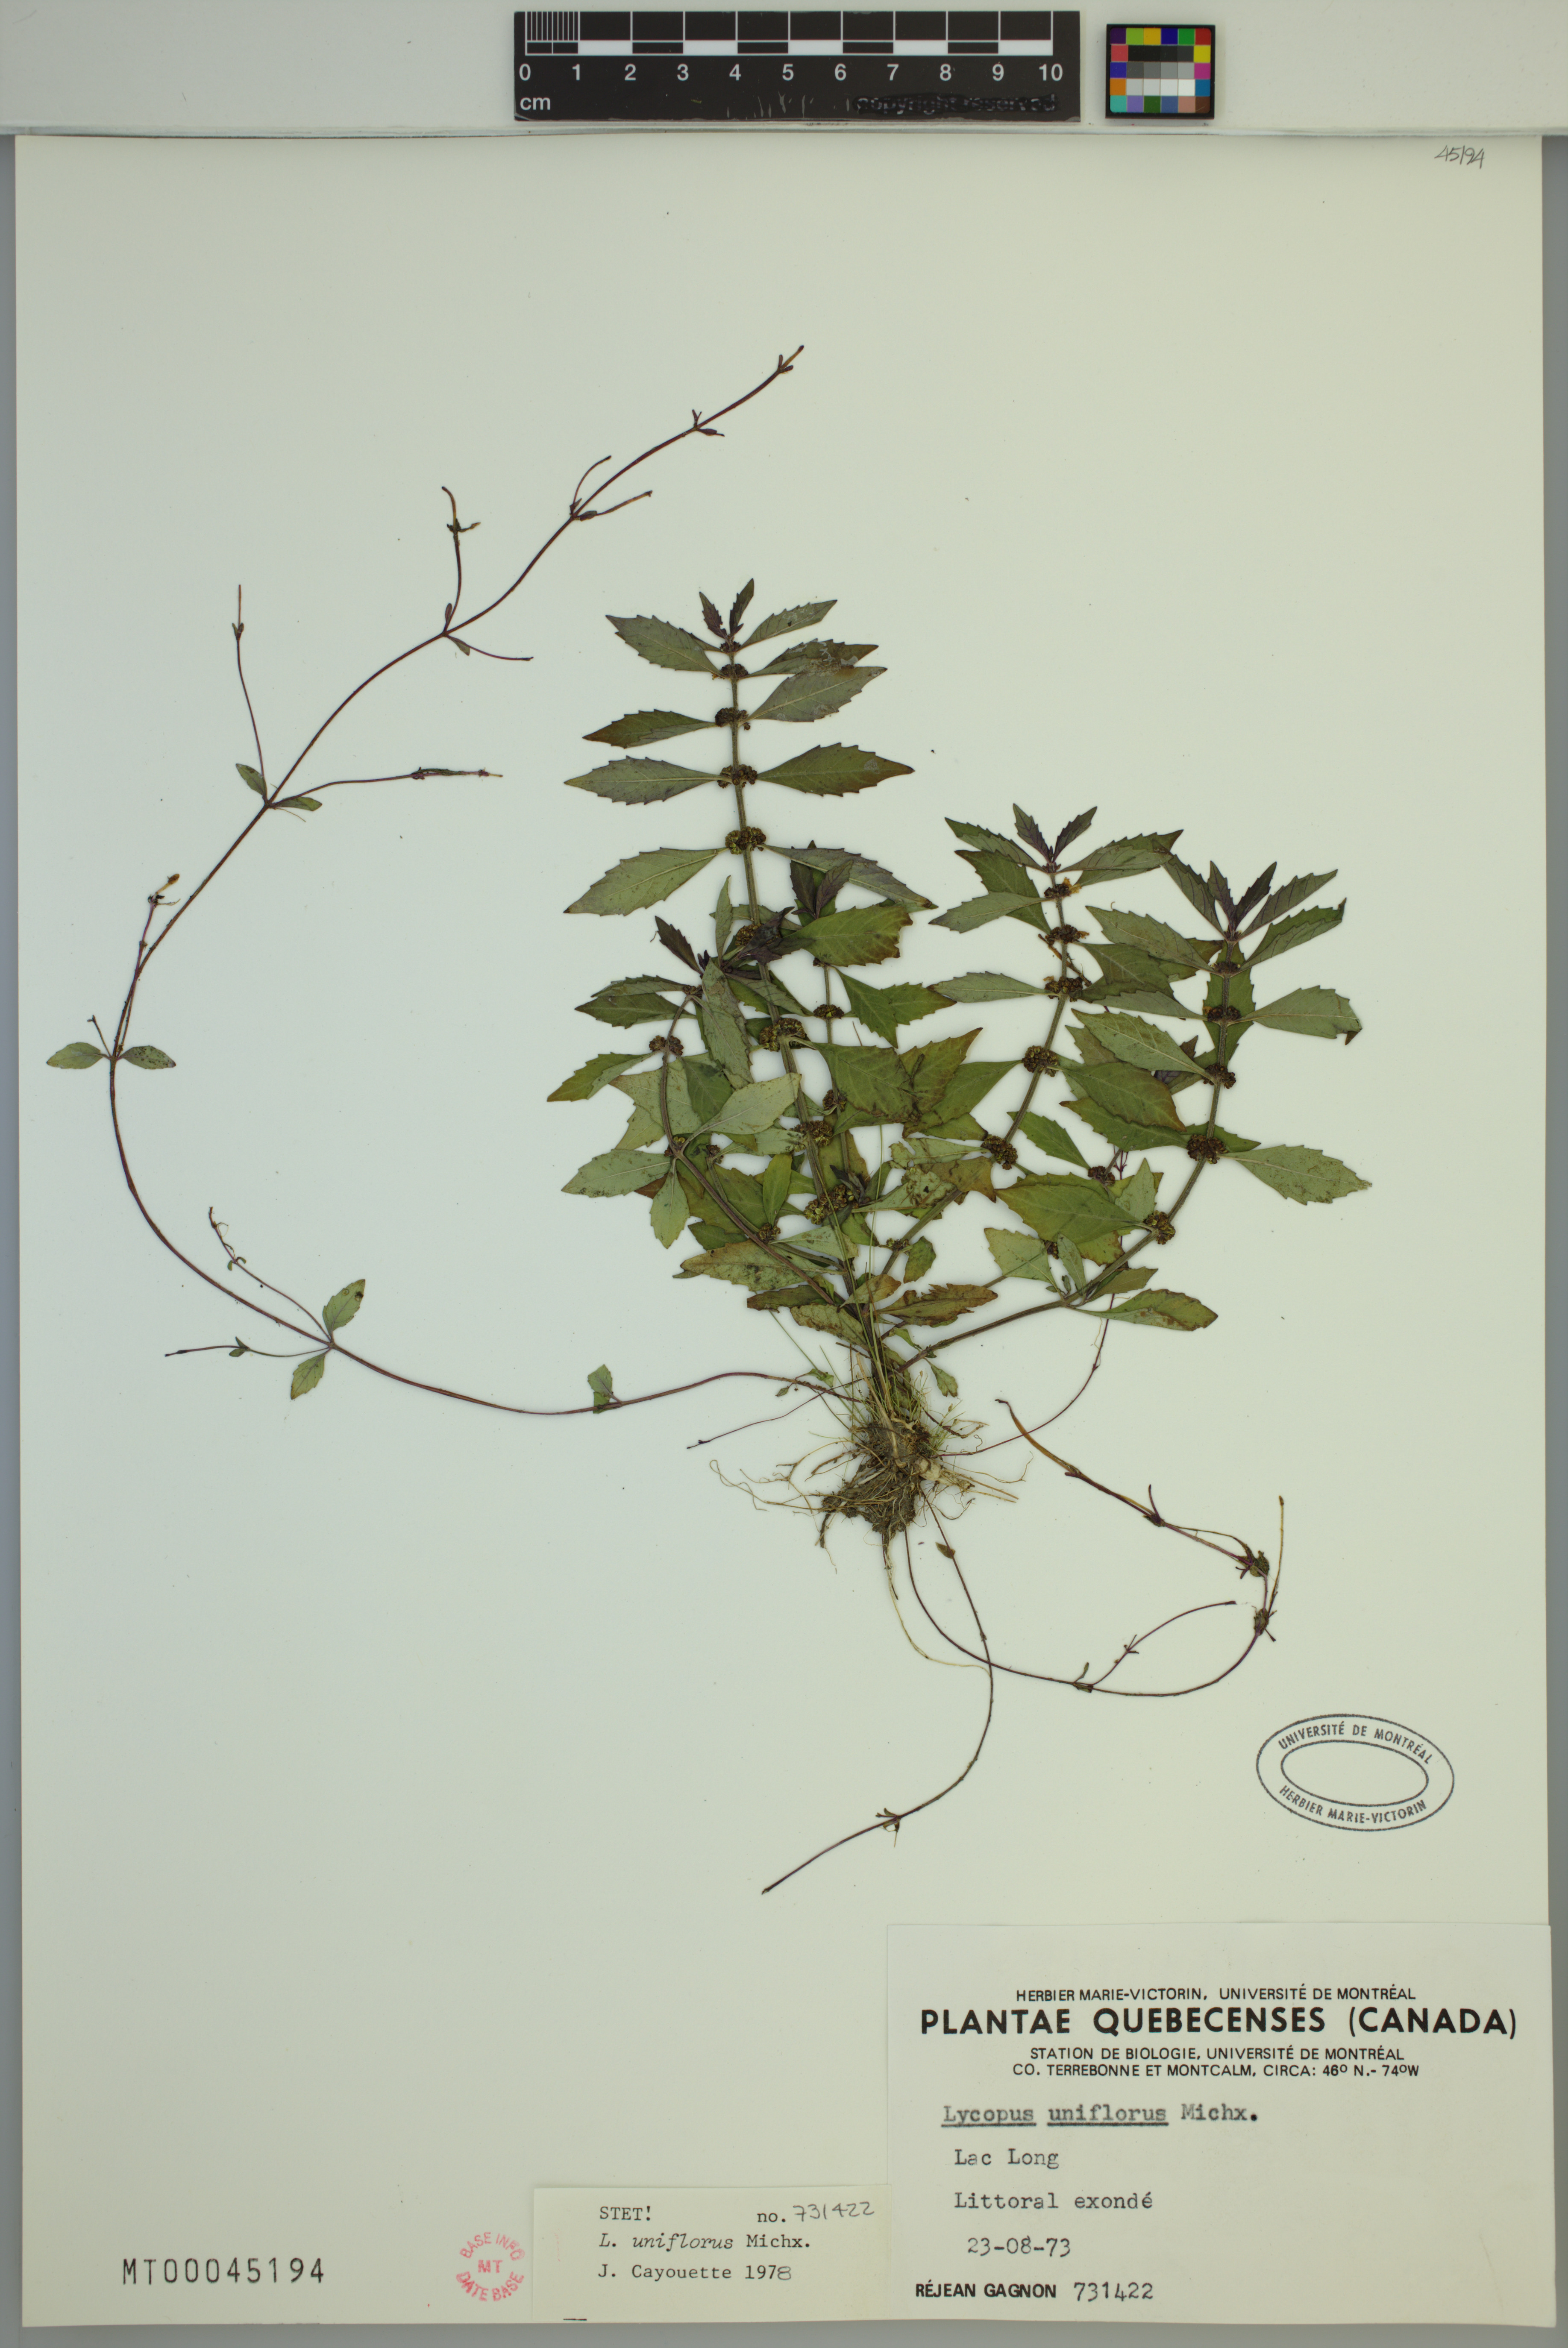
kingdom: Plantae
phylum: Tracheophyta
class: Magnoliopsida
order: Lamiales
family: Lamiaceae
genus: Lycopus
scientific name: Lycopus uniflorus
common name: Northern bugleweed
